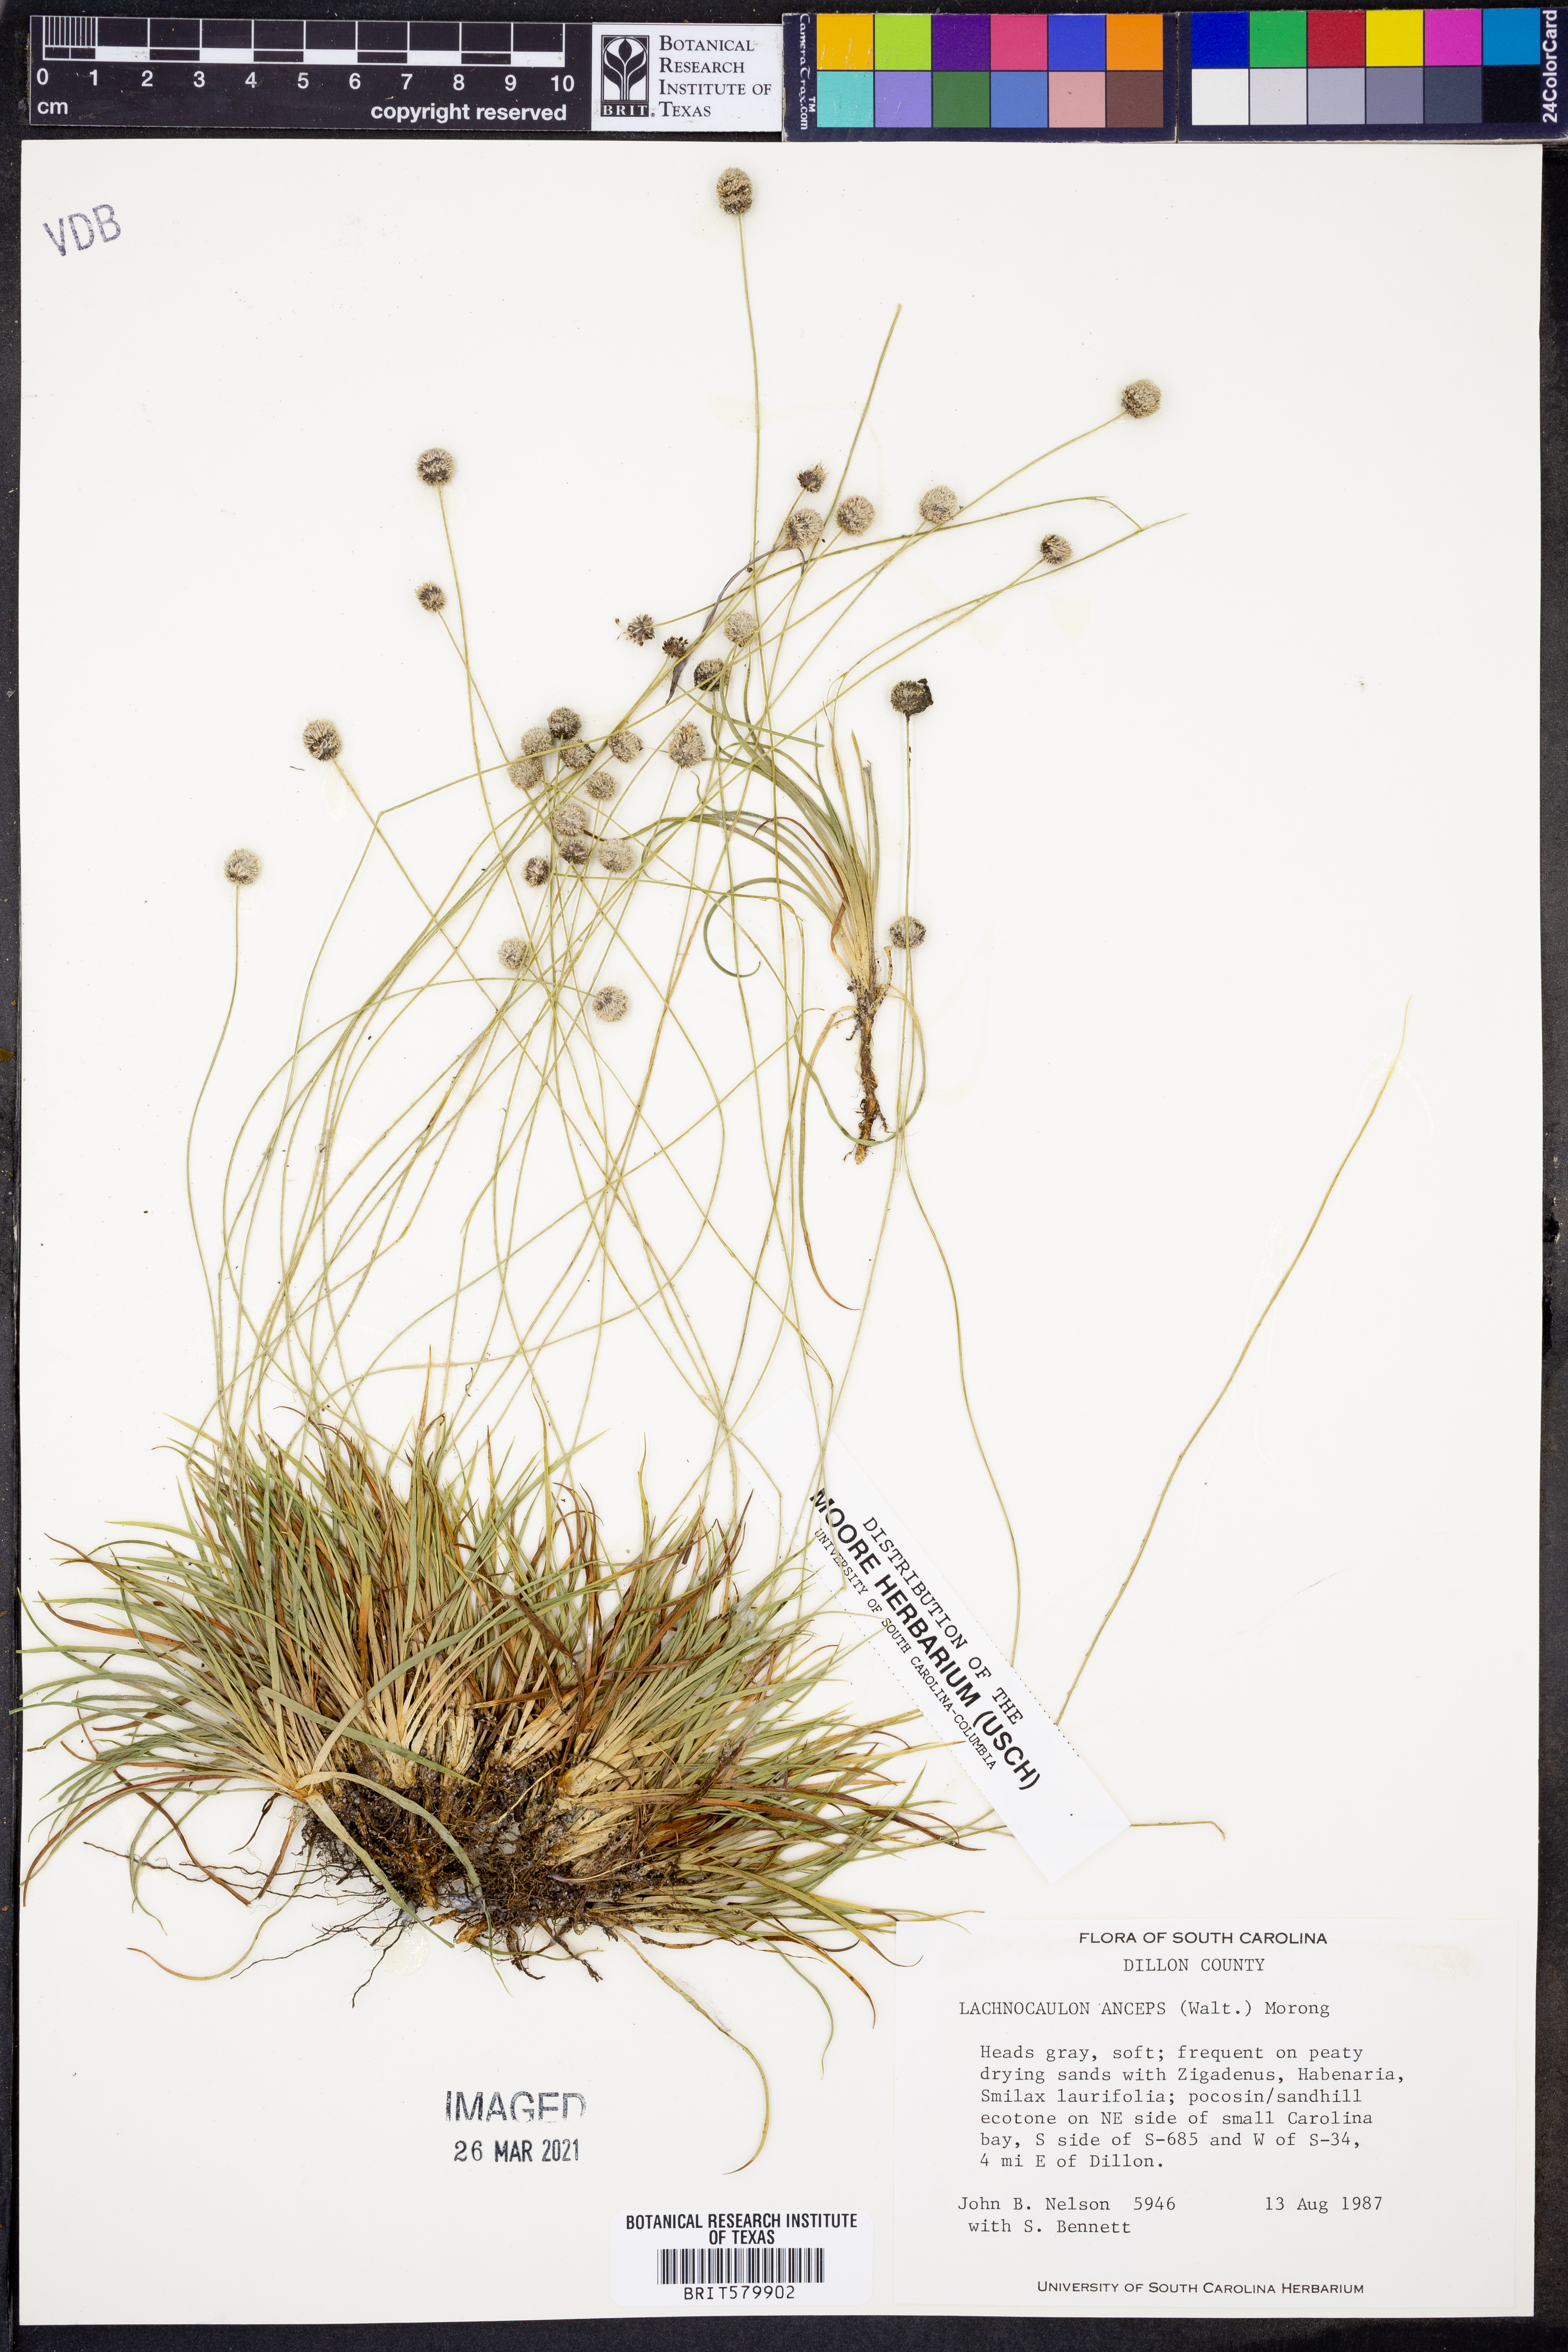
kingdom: Plantae
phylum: Tracheophyta
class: Liliopsida
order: Poales
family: Eriocaulaceae
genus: Paepalanthus
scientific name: Paepalanthus anceps
